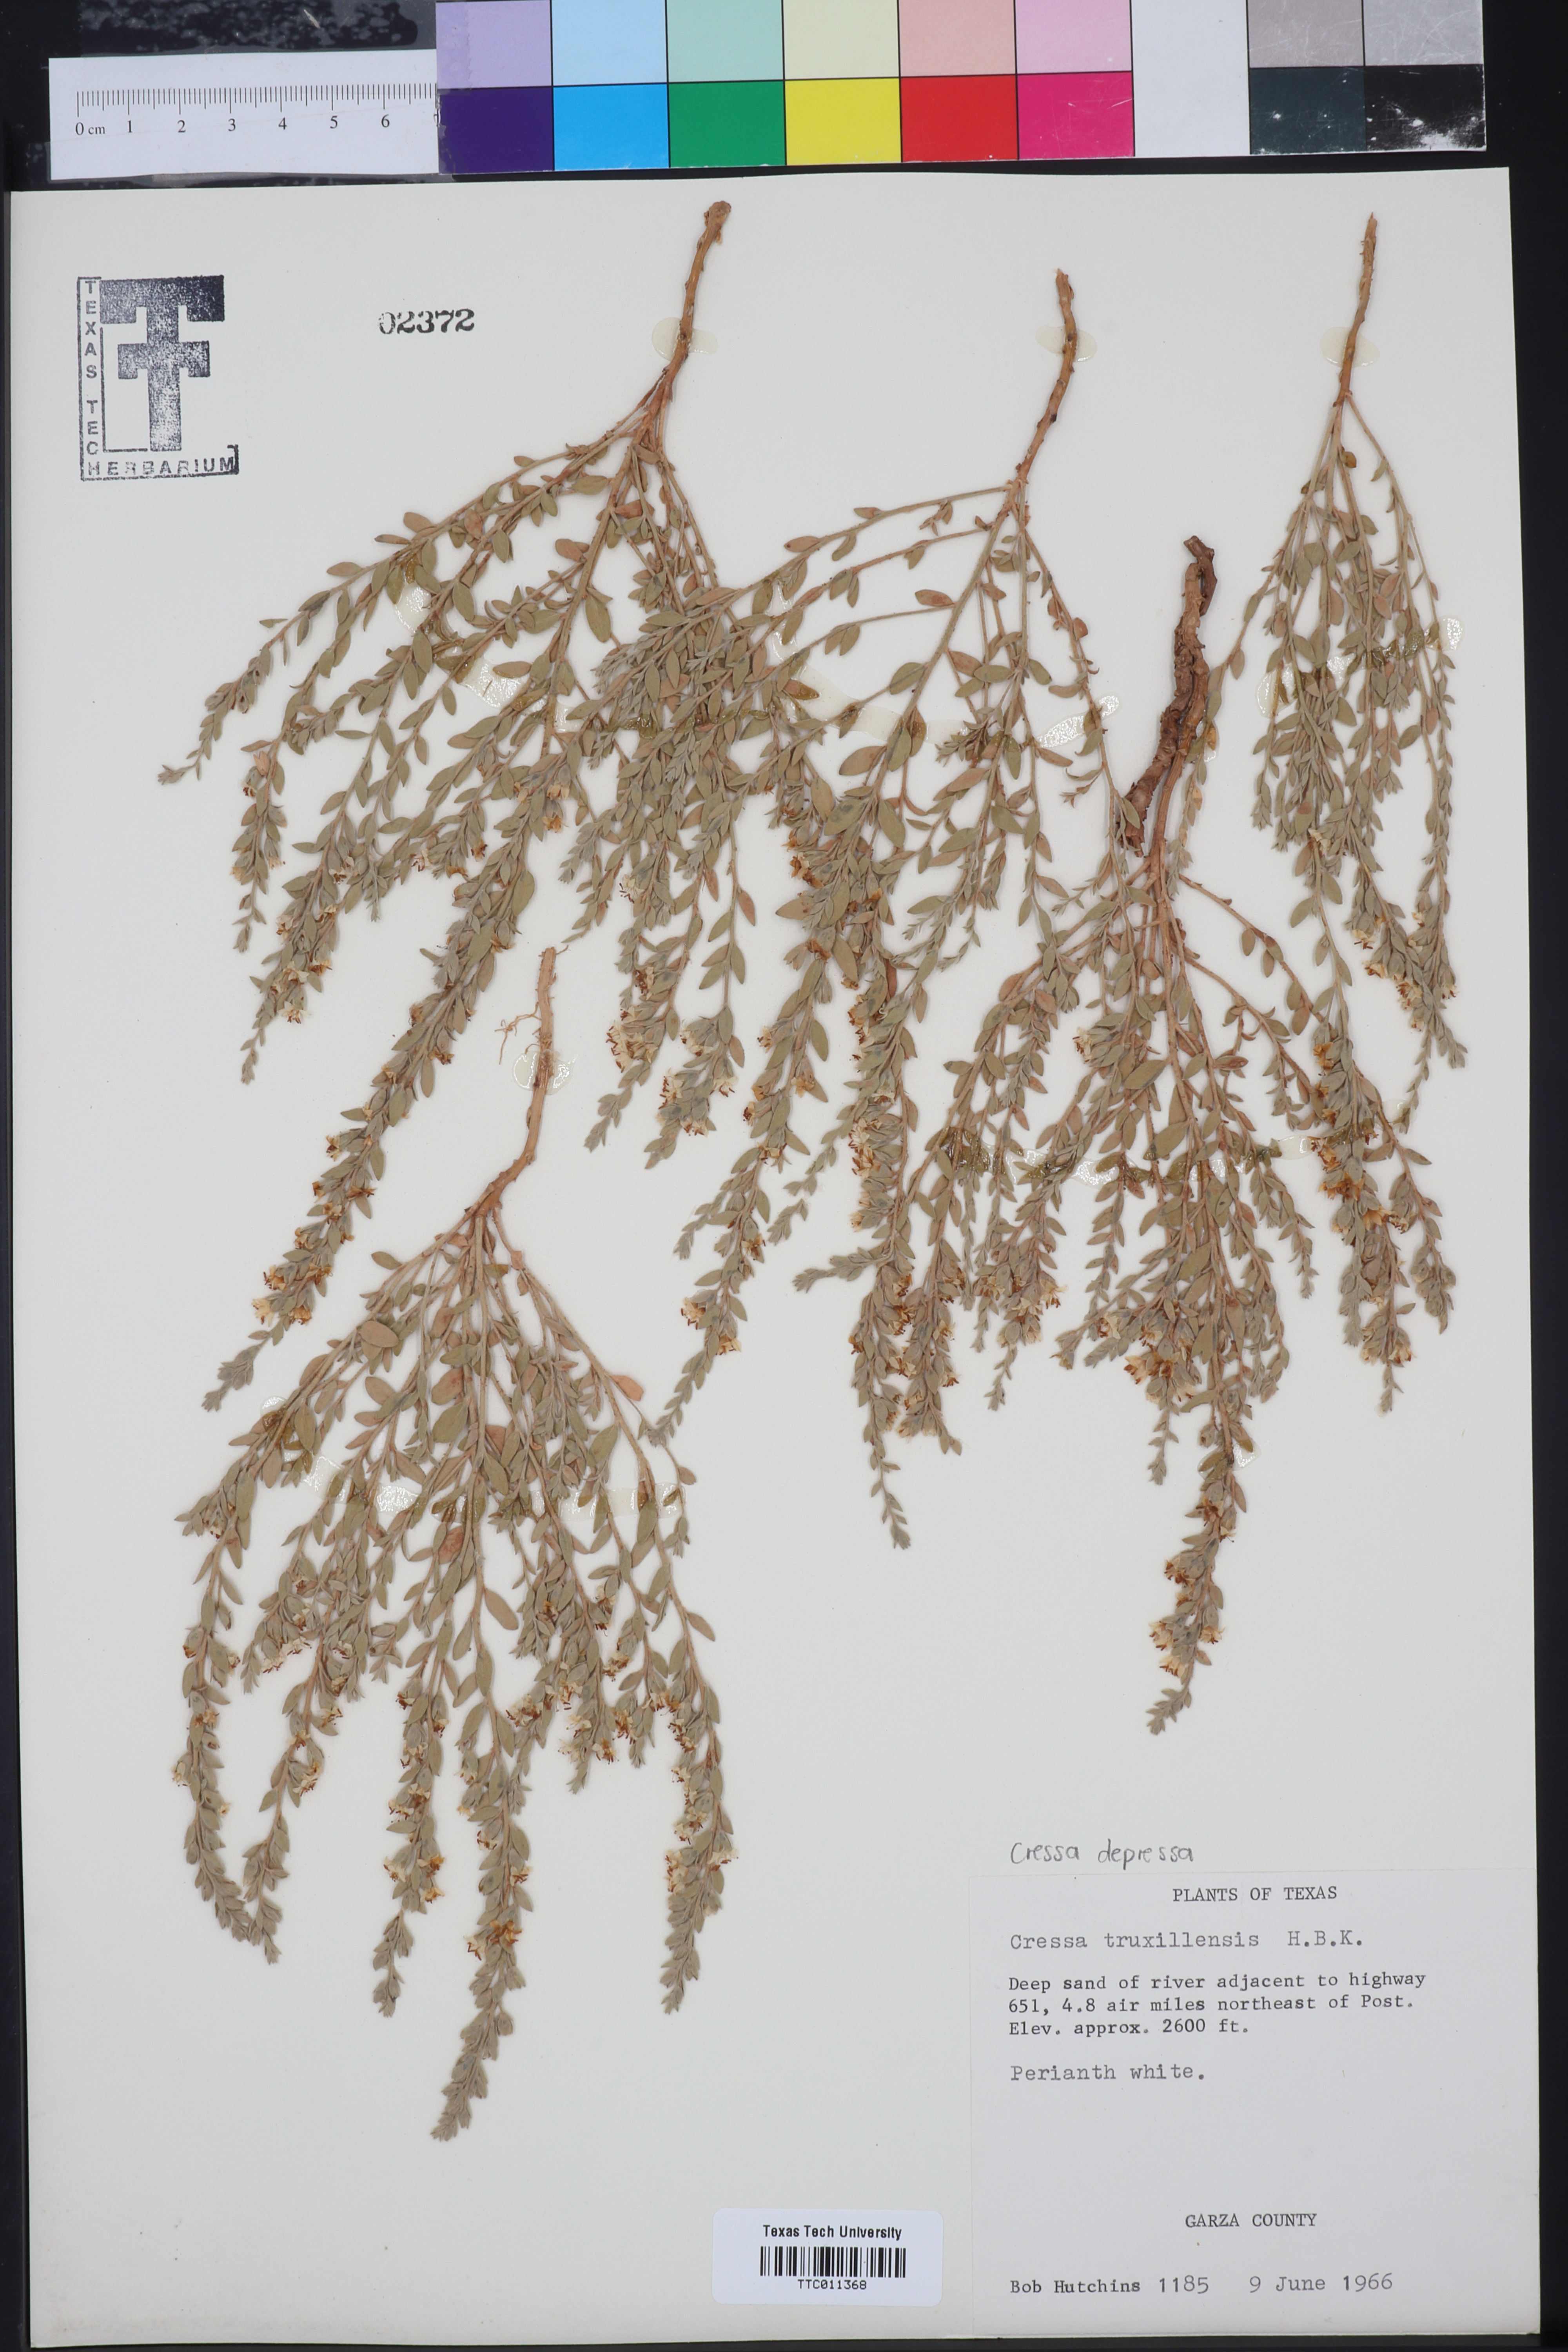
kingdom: Plantae
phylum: Tracheophyta
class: Magnoliopsida
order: Solanales
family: Convolvulaceae
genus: Cressa
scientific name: Cressa truxillensis
